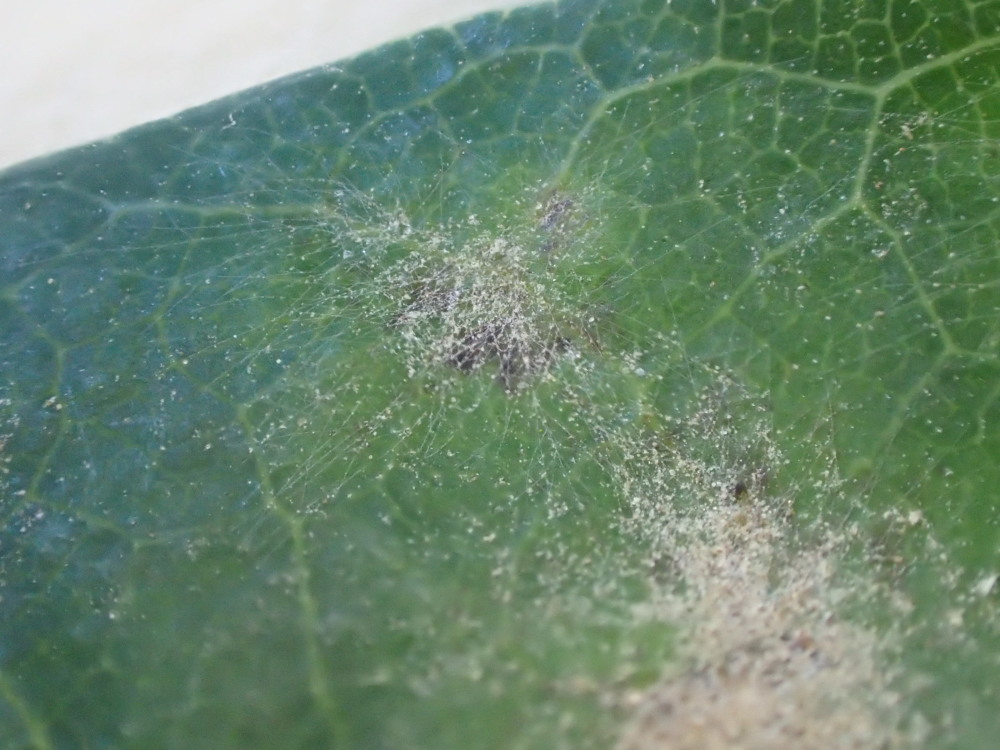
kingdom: Fungi
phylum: Ascomycota
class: Leotiomycetes
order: Helotiales
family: Erysiphaceae
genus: Erysiphe
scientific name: Erysiphe alphitoides
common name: ege-meldug
